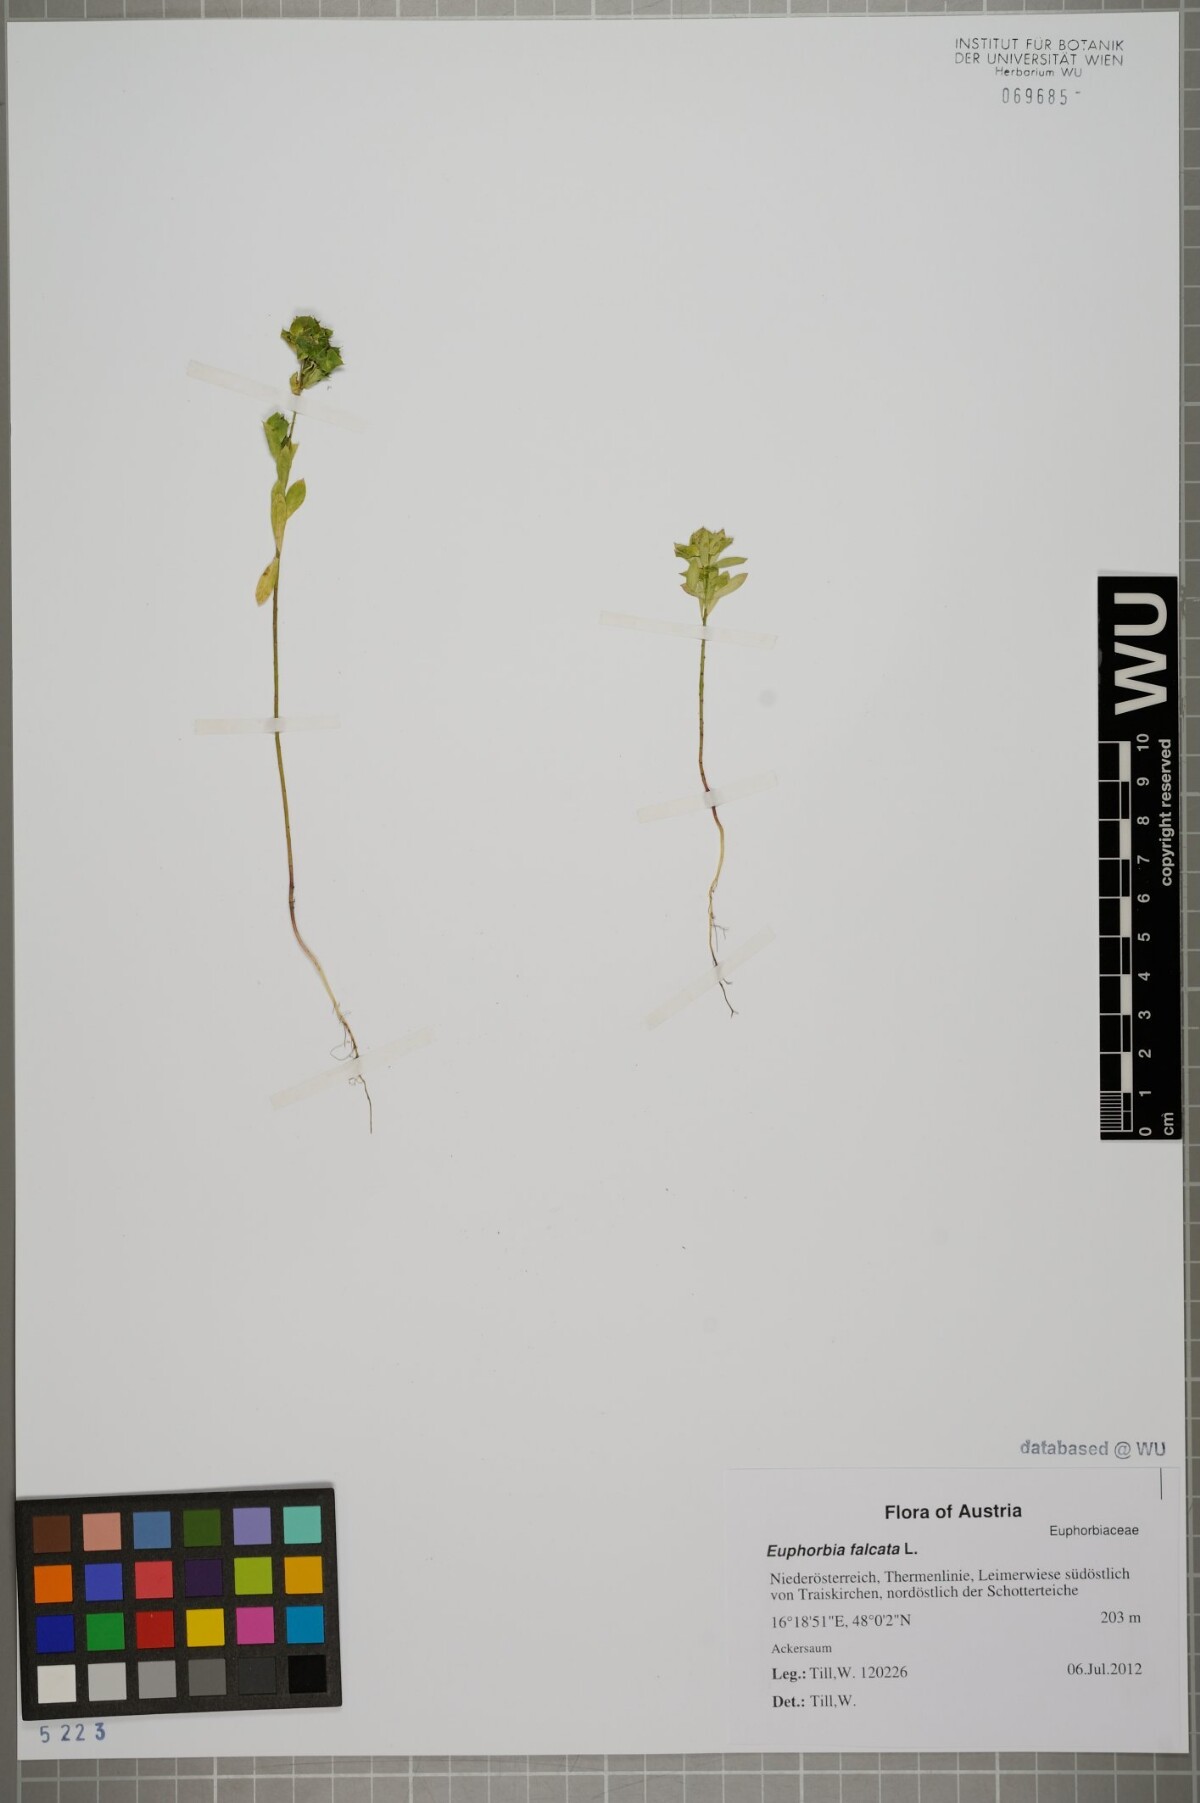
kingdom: Plantae
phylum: Tracheophyta
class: Magnoliopsida
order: Malpighiales
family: Euphorbiaceae
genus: Euphorbia
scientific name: Euphorbia falcata
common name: Sickle spurge
